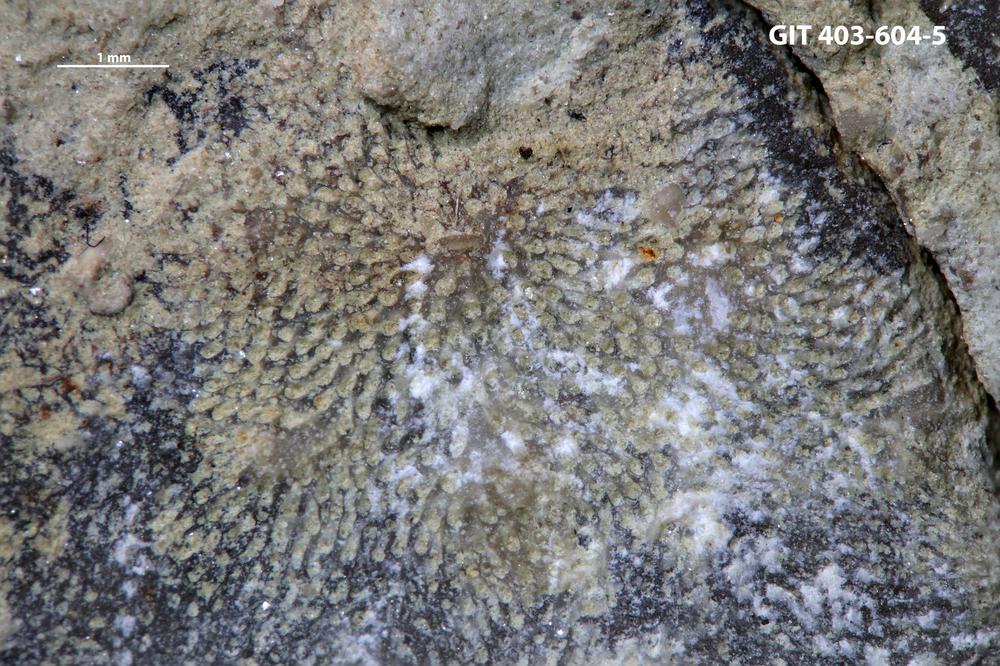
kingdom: Animalia
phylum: Bryozoa
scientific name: Bryozoa
